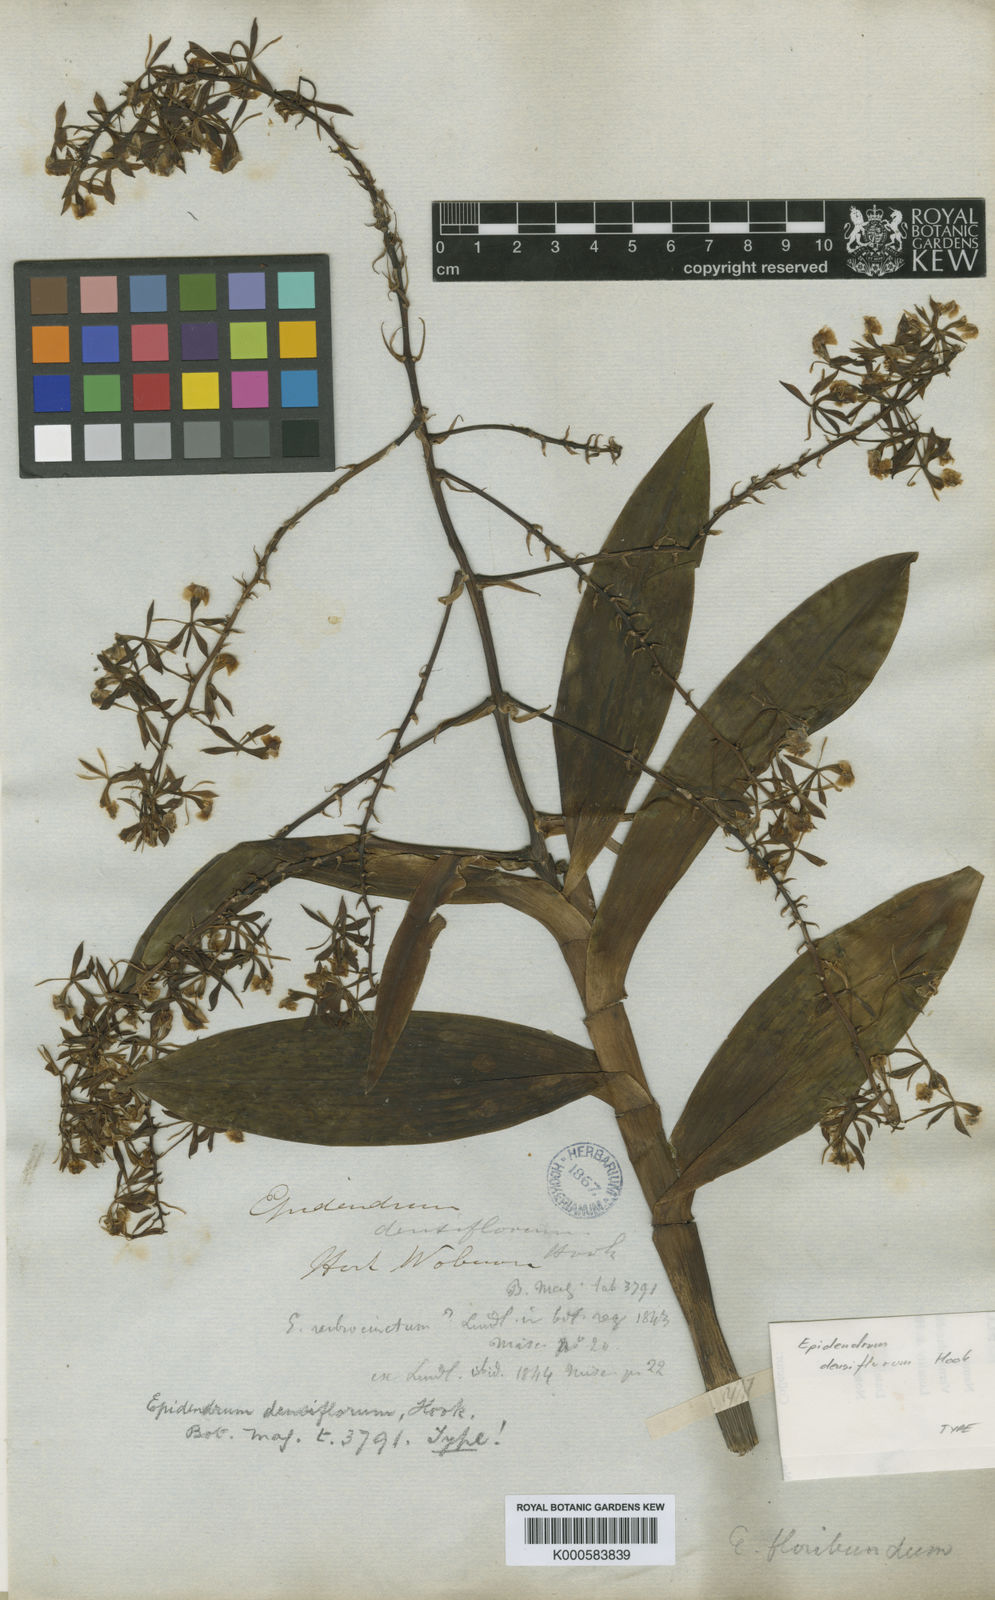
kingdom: Plantae
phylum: Tracheophyta
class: Liliopsida
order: Asparagales
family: Orchidaceae
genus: Epidendrum
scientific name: Epidendrum densiflorum
